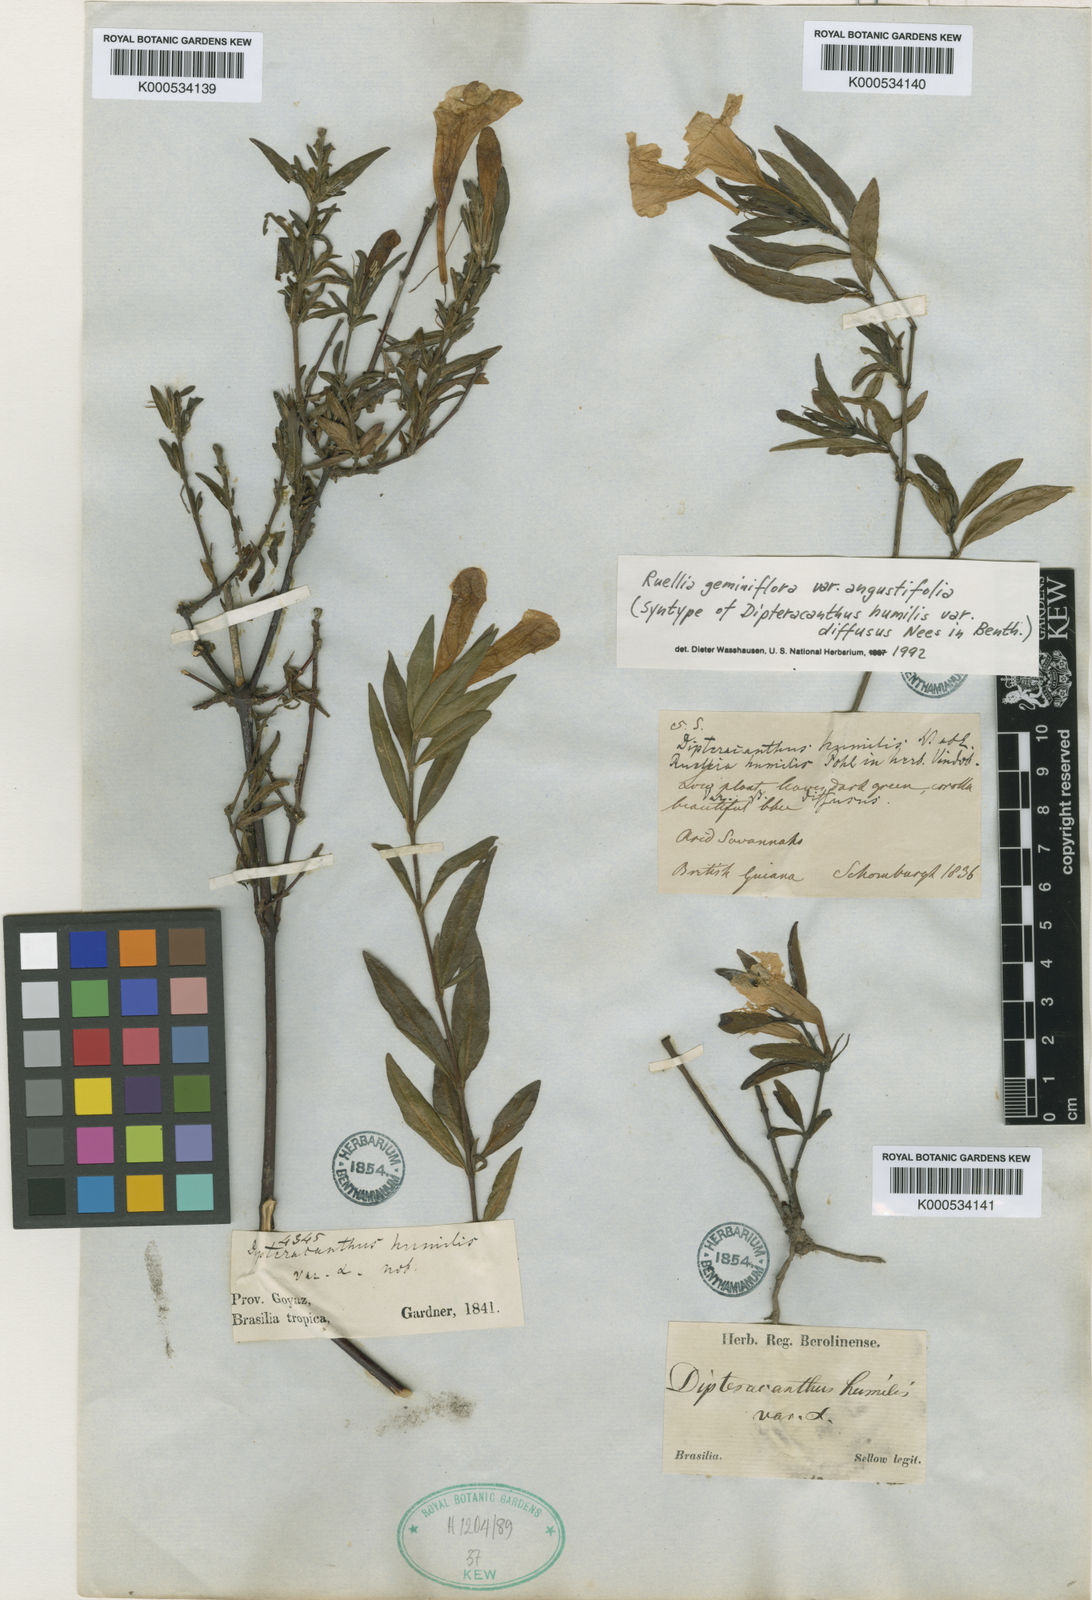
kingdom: Plantae
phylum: Tracheophyta
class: Magnoliopsida
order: Lamiales
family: Acanthaceae
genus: Ruellia
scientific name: Ruellia geminiflora
